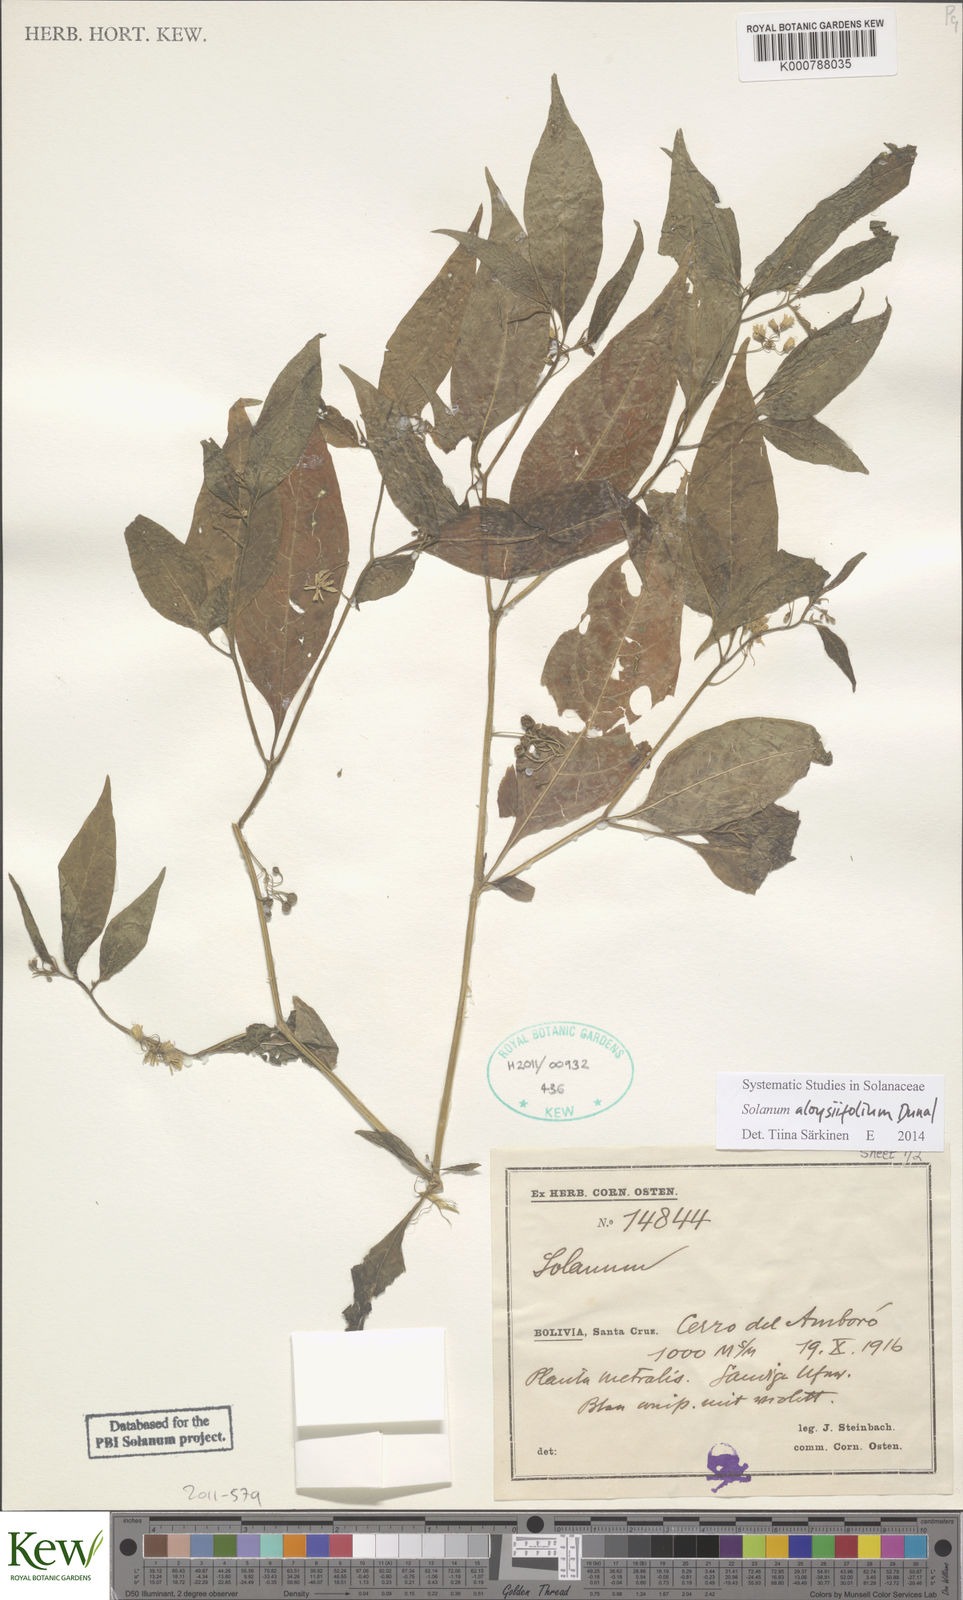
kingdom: Plantae
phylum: Tracheophyta
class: Magnoliopsida
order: Solanales
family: Solanaceae
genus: Solanum
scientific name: Solanum nigrescens
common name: Divine nightshade
